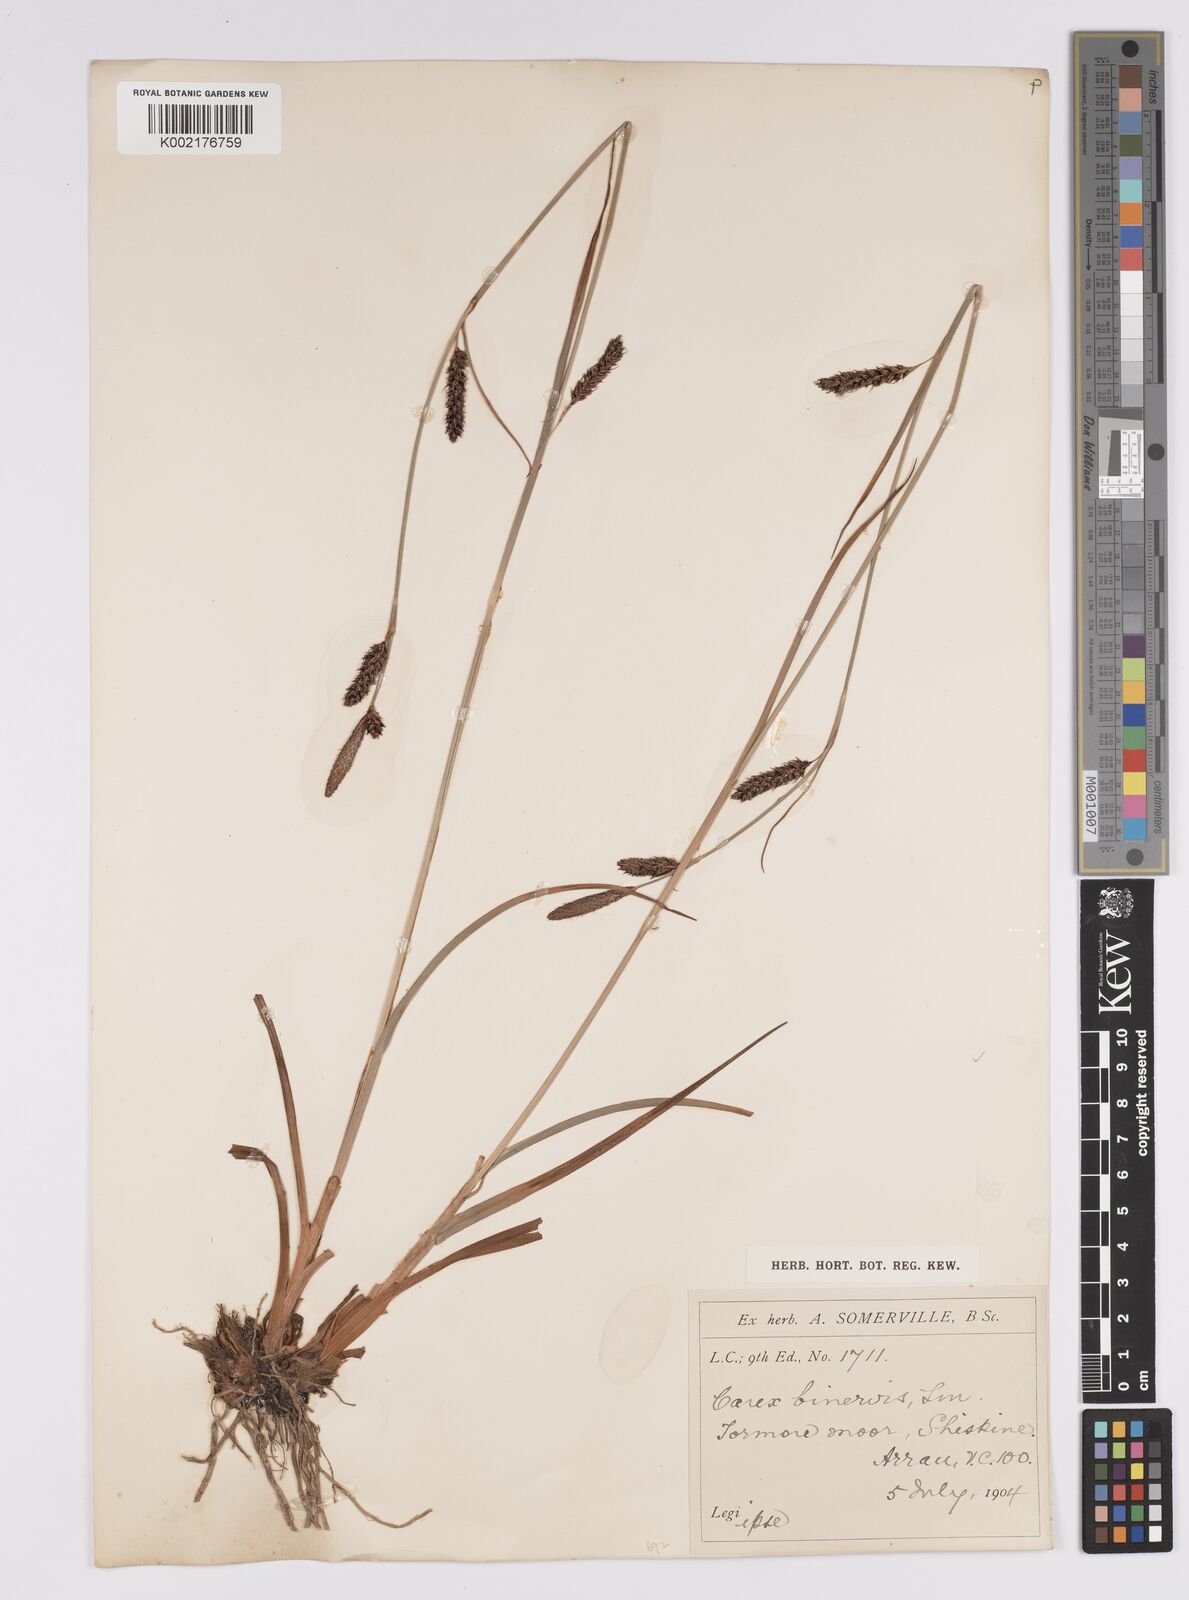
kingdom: Plantae
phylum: Tracheophyta
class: Liliopsida
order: Poales
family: Cyperaceae
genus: Carex
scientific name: Carex binervis
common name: Green-ribbed sedge
